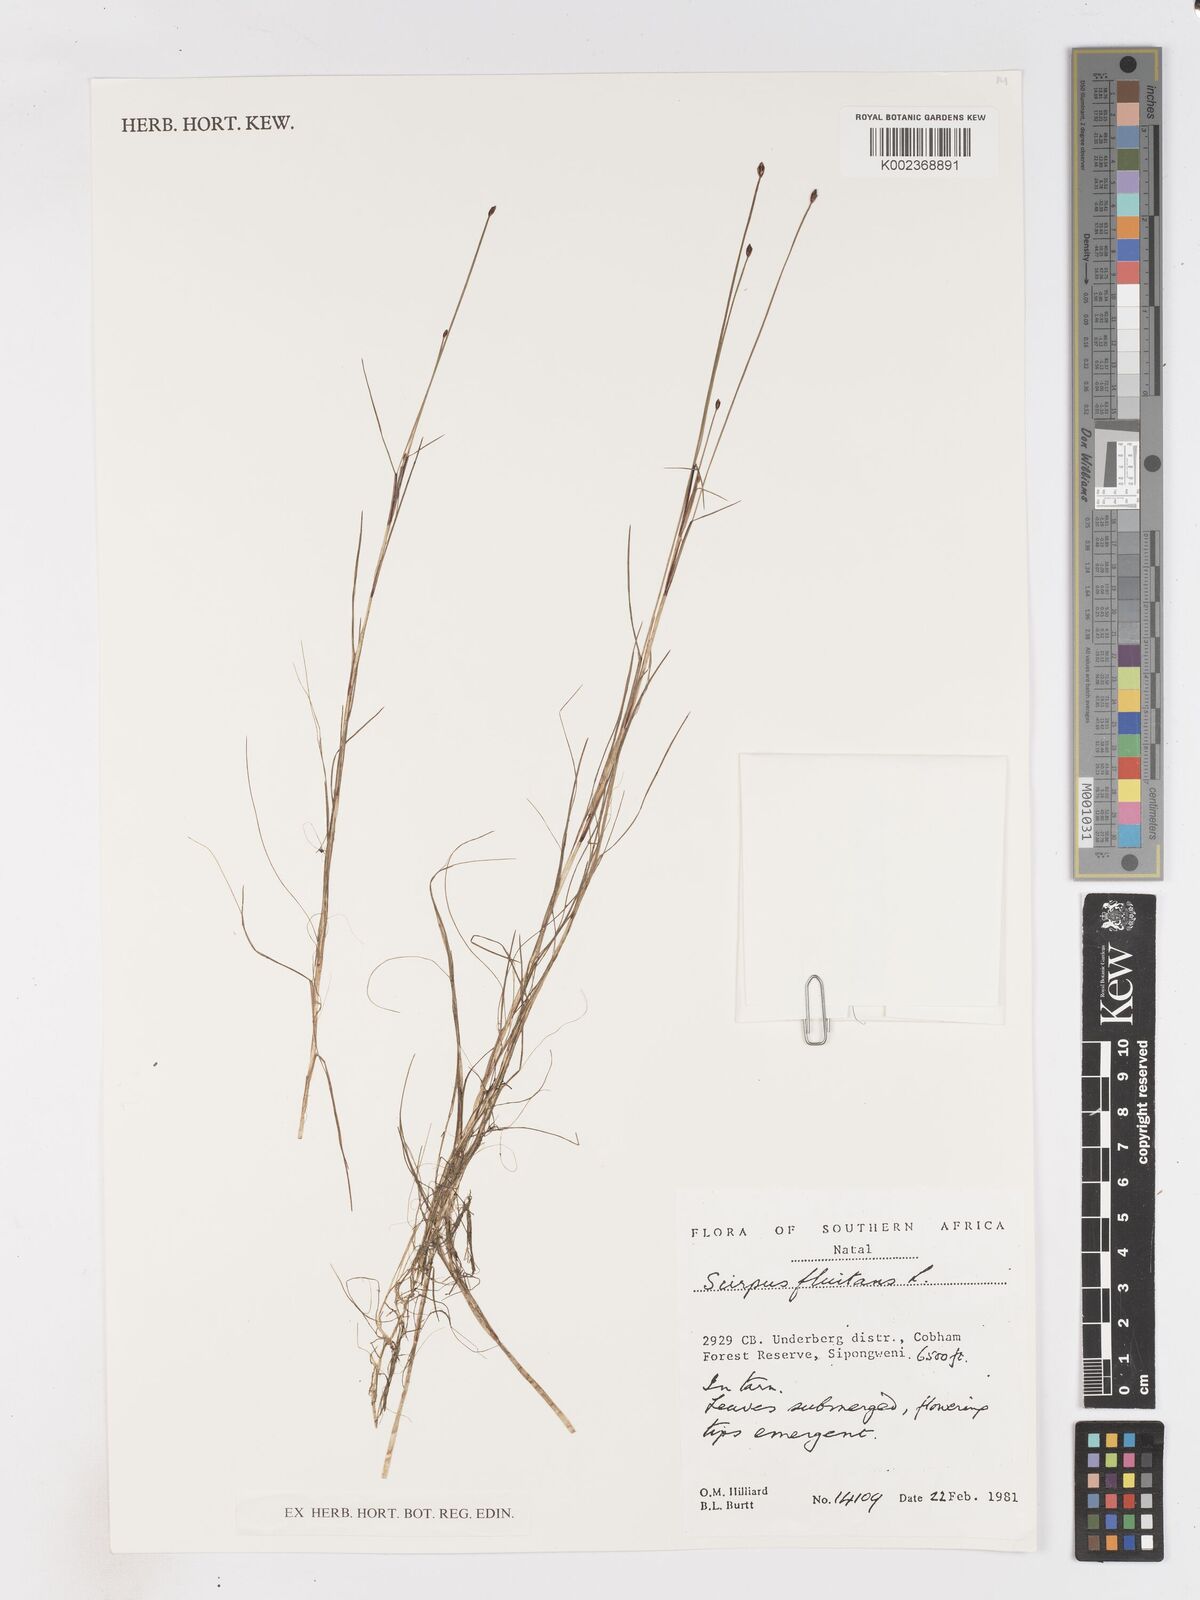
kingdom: Plantae
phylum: Tracheophyta
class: Liliopsida
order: Poales
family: Cyperaceae
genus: Isolepis
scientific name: Isolepis fluitans
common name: Floating club-rush
